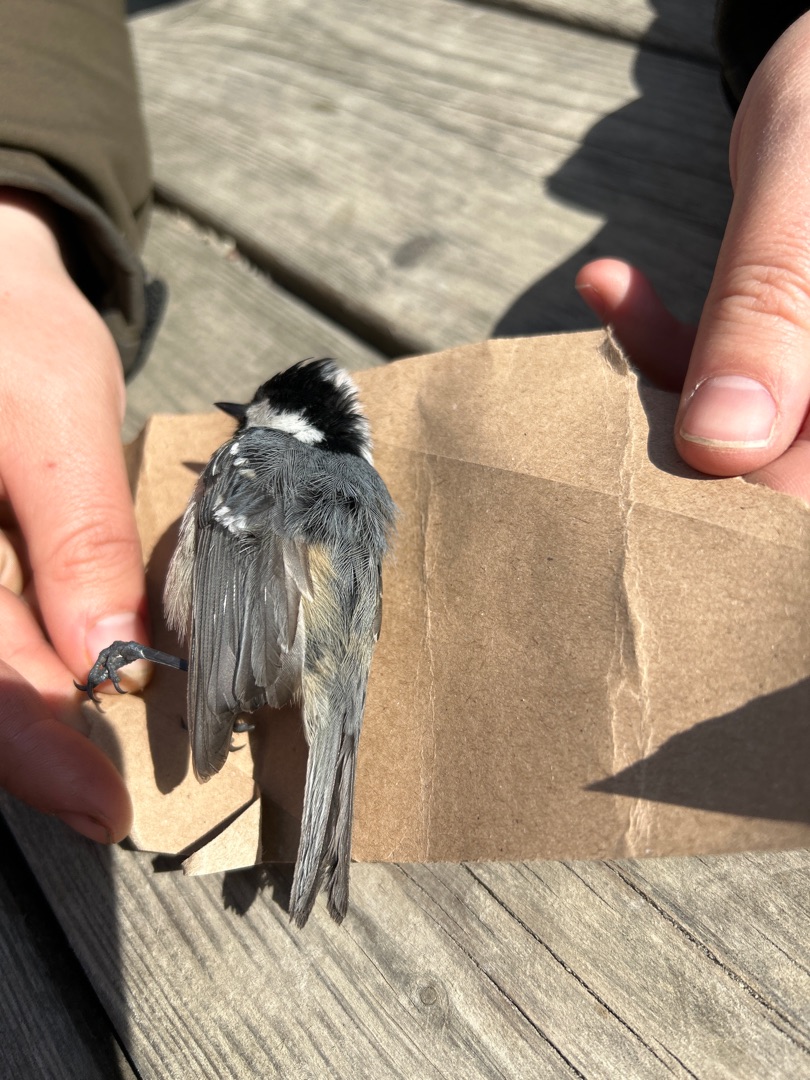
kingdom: Animalia
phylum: Chordata
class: Aves
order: Passeriformes
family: Paridae
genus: Periparus
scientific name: Periparus ater
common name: Sortmejse
